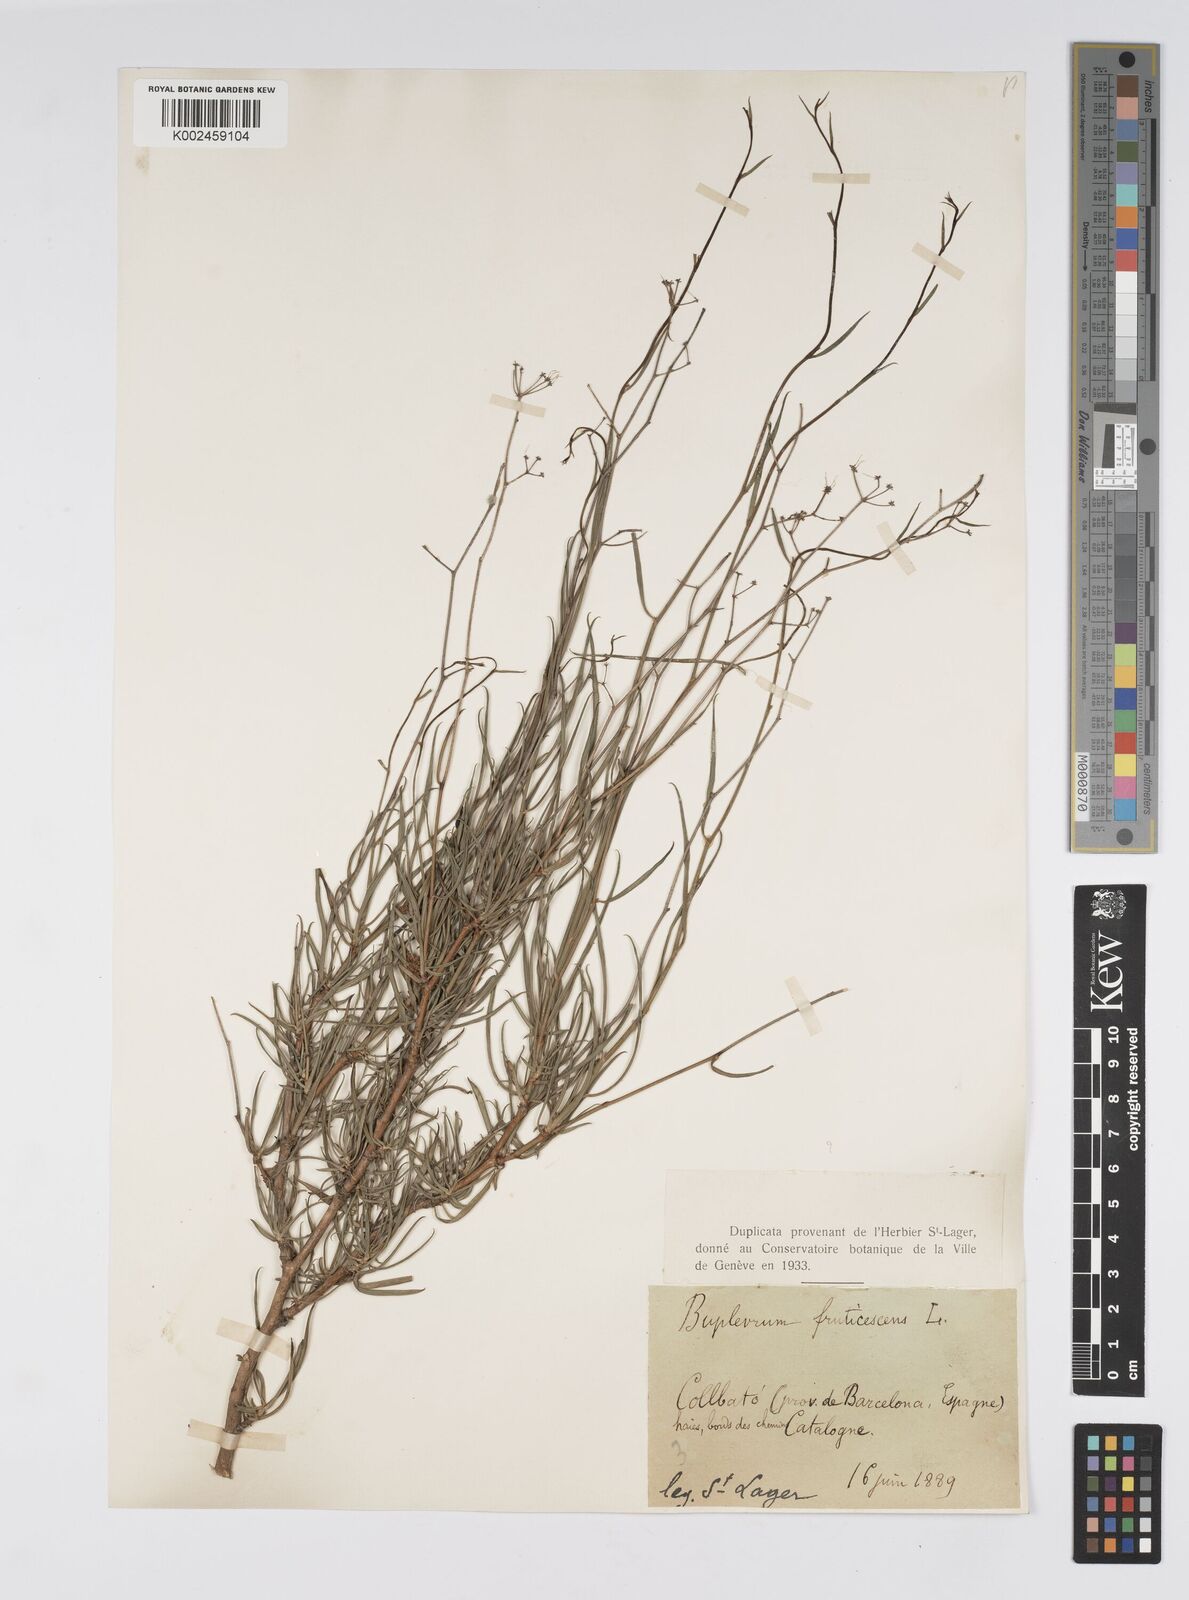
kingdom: Plantae
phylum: Tracheophyta
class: Magnoliopsida
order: Apiales
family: Apiaceae
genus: Bupleurum
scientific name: Bupleurum fruticescens
